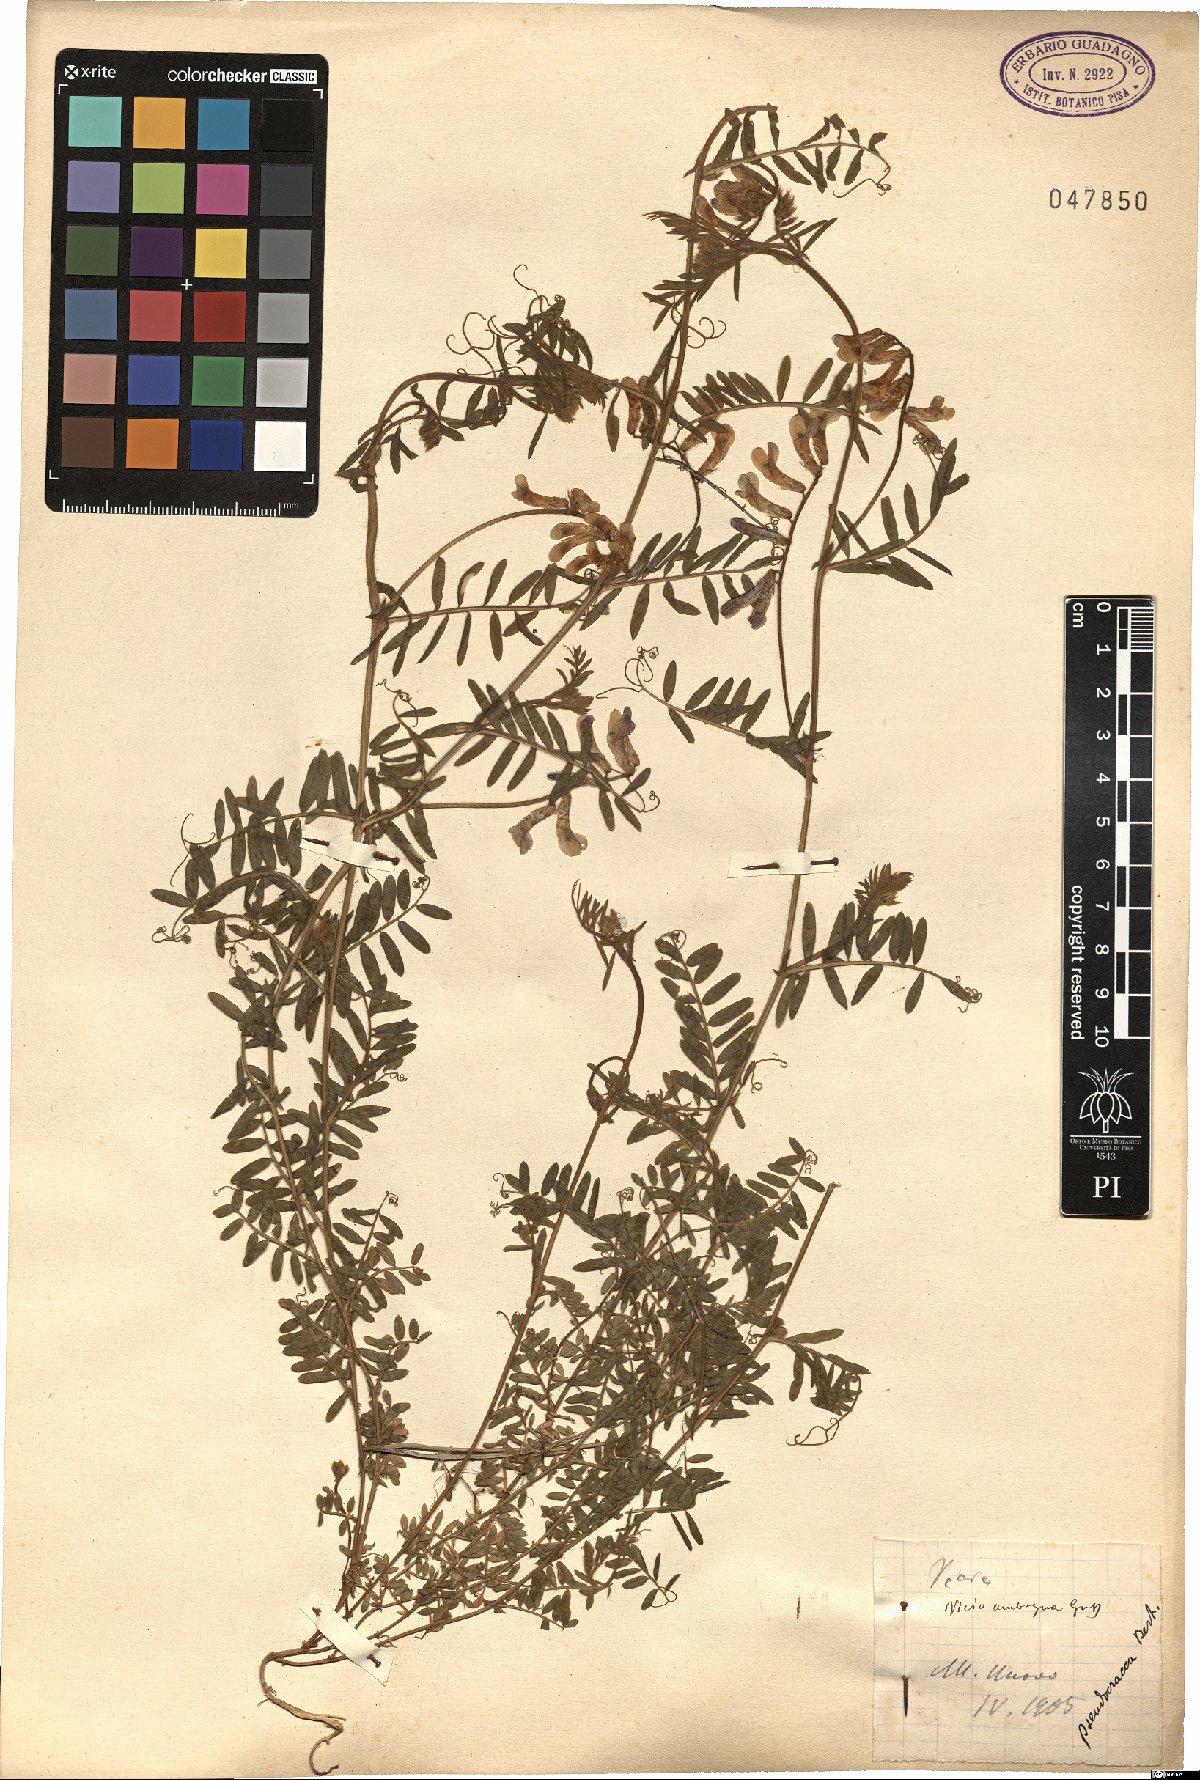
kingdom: Plantae
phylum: Tracheophyta
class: Magnoliopsida
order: Fabales
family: Fabaceae
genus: Vicia
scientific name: Vicia villosa
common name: Fodder vetch
